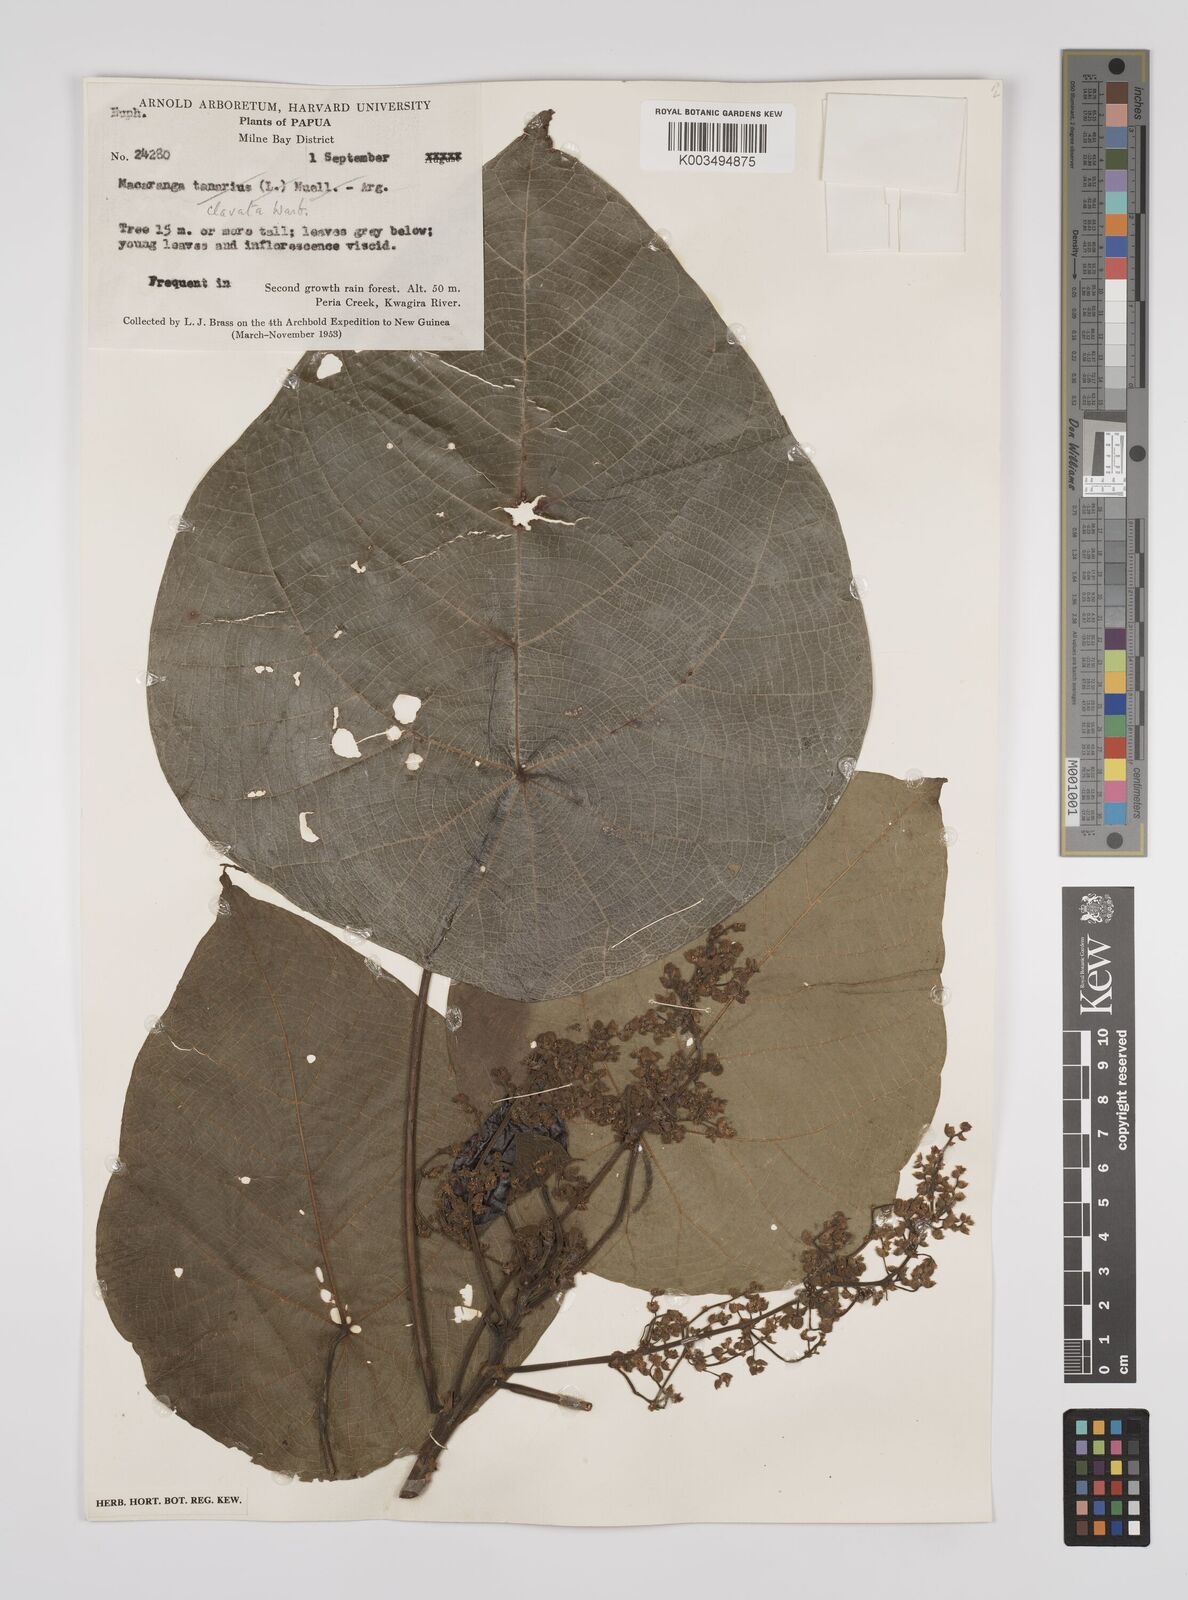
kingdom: Plantae
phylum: Tracheophyta
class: Magnoliopsida
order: Malpighiales
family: Euphorbiaceae
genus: Macaranga
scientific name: Macaranga clavata
